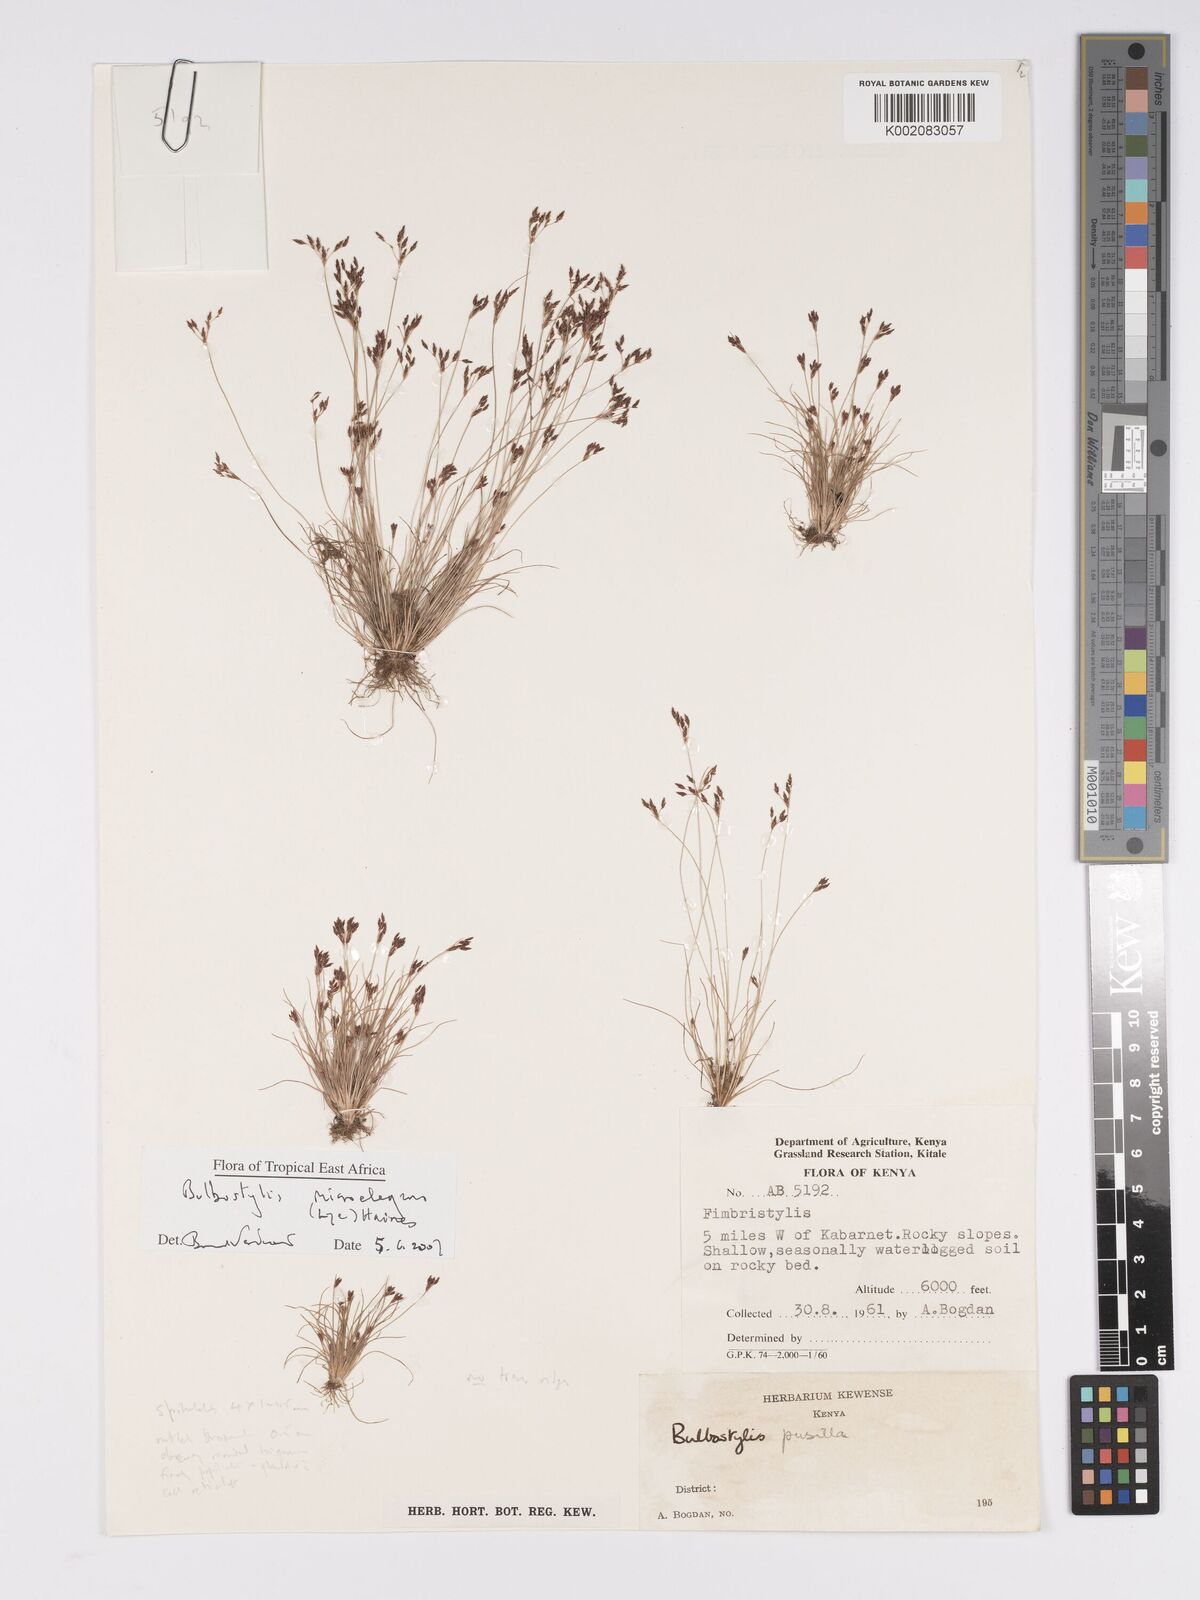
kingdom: Plantae
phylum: Tracheophyta
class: Liliopsida
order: Poales
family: Cyperaceae
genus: Bulbostylis
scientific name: Bulbostylis microelegans
